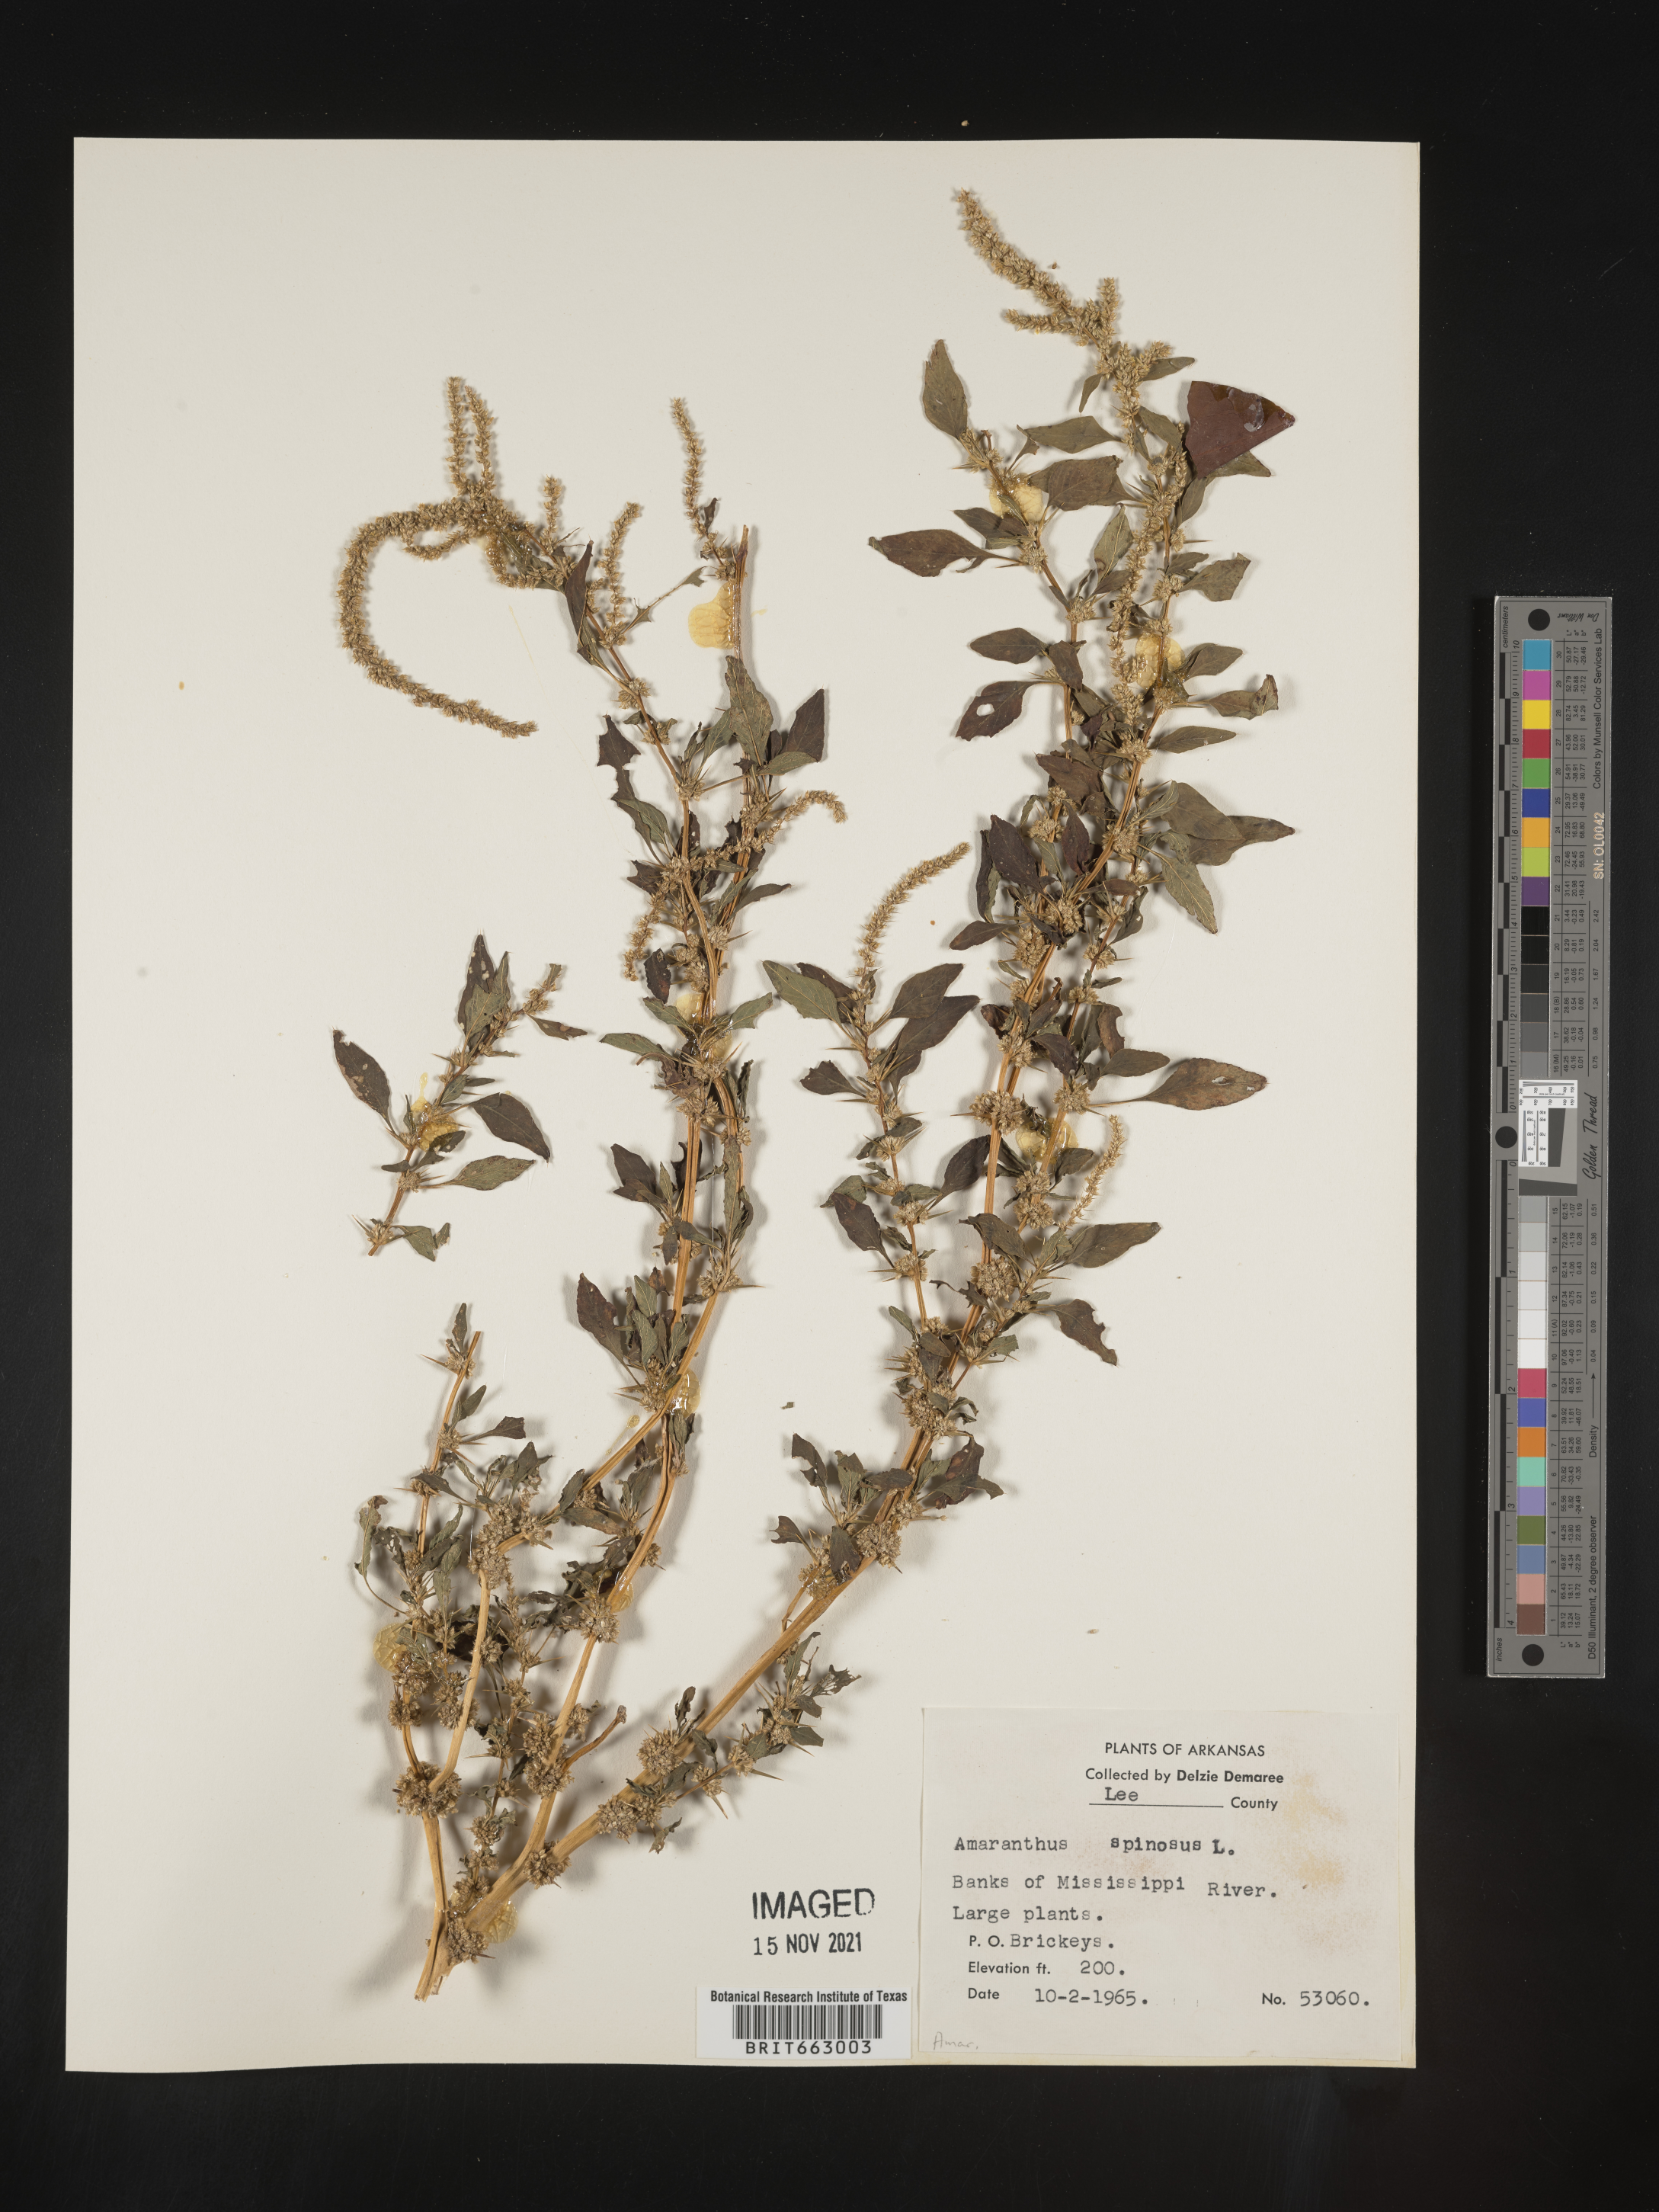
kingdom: Plantae
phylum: Tracheophyta
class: Magnoliopsida
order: Caryophyllales
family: Amaranthaceae
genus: Amaranthus
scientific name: Amaranthus spinosus
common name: Spiny amaranth
